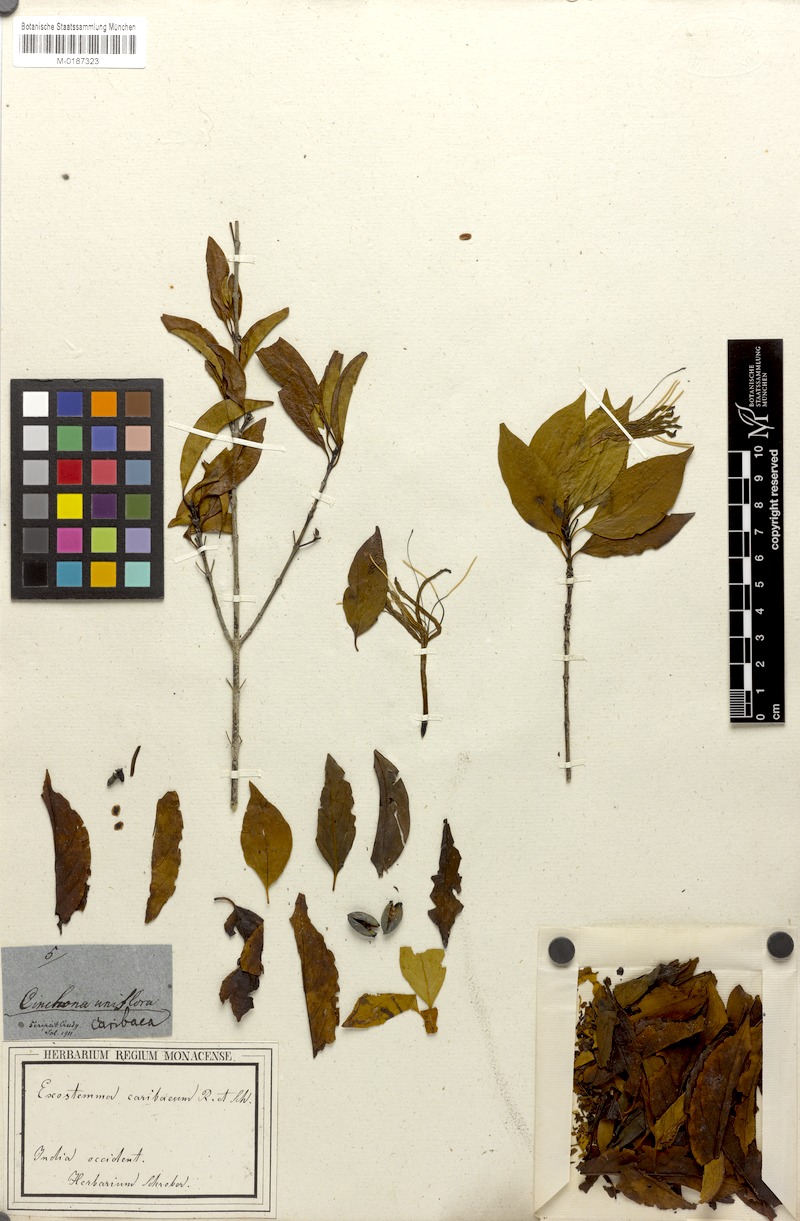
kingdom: Plantae
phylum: Tracheophyta
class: Magnoliopsida
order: Gentianales
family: Rubiaceae
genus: Exostema
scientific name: Exostema caribaeum
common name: Princewood
